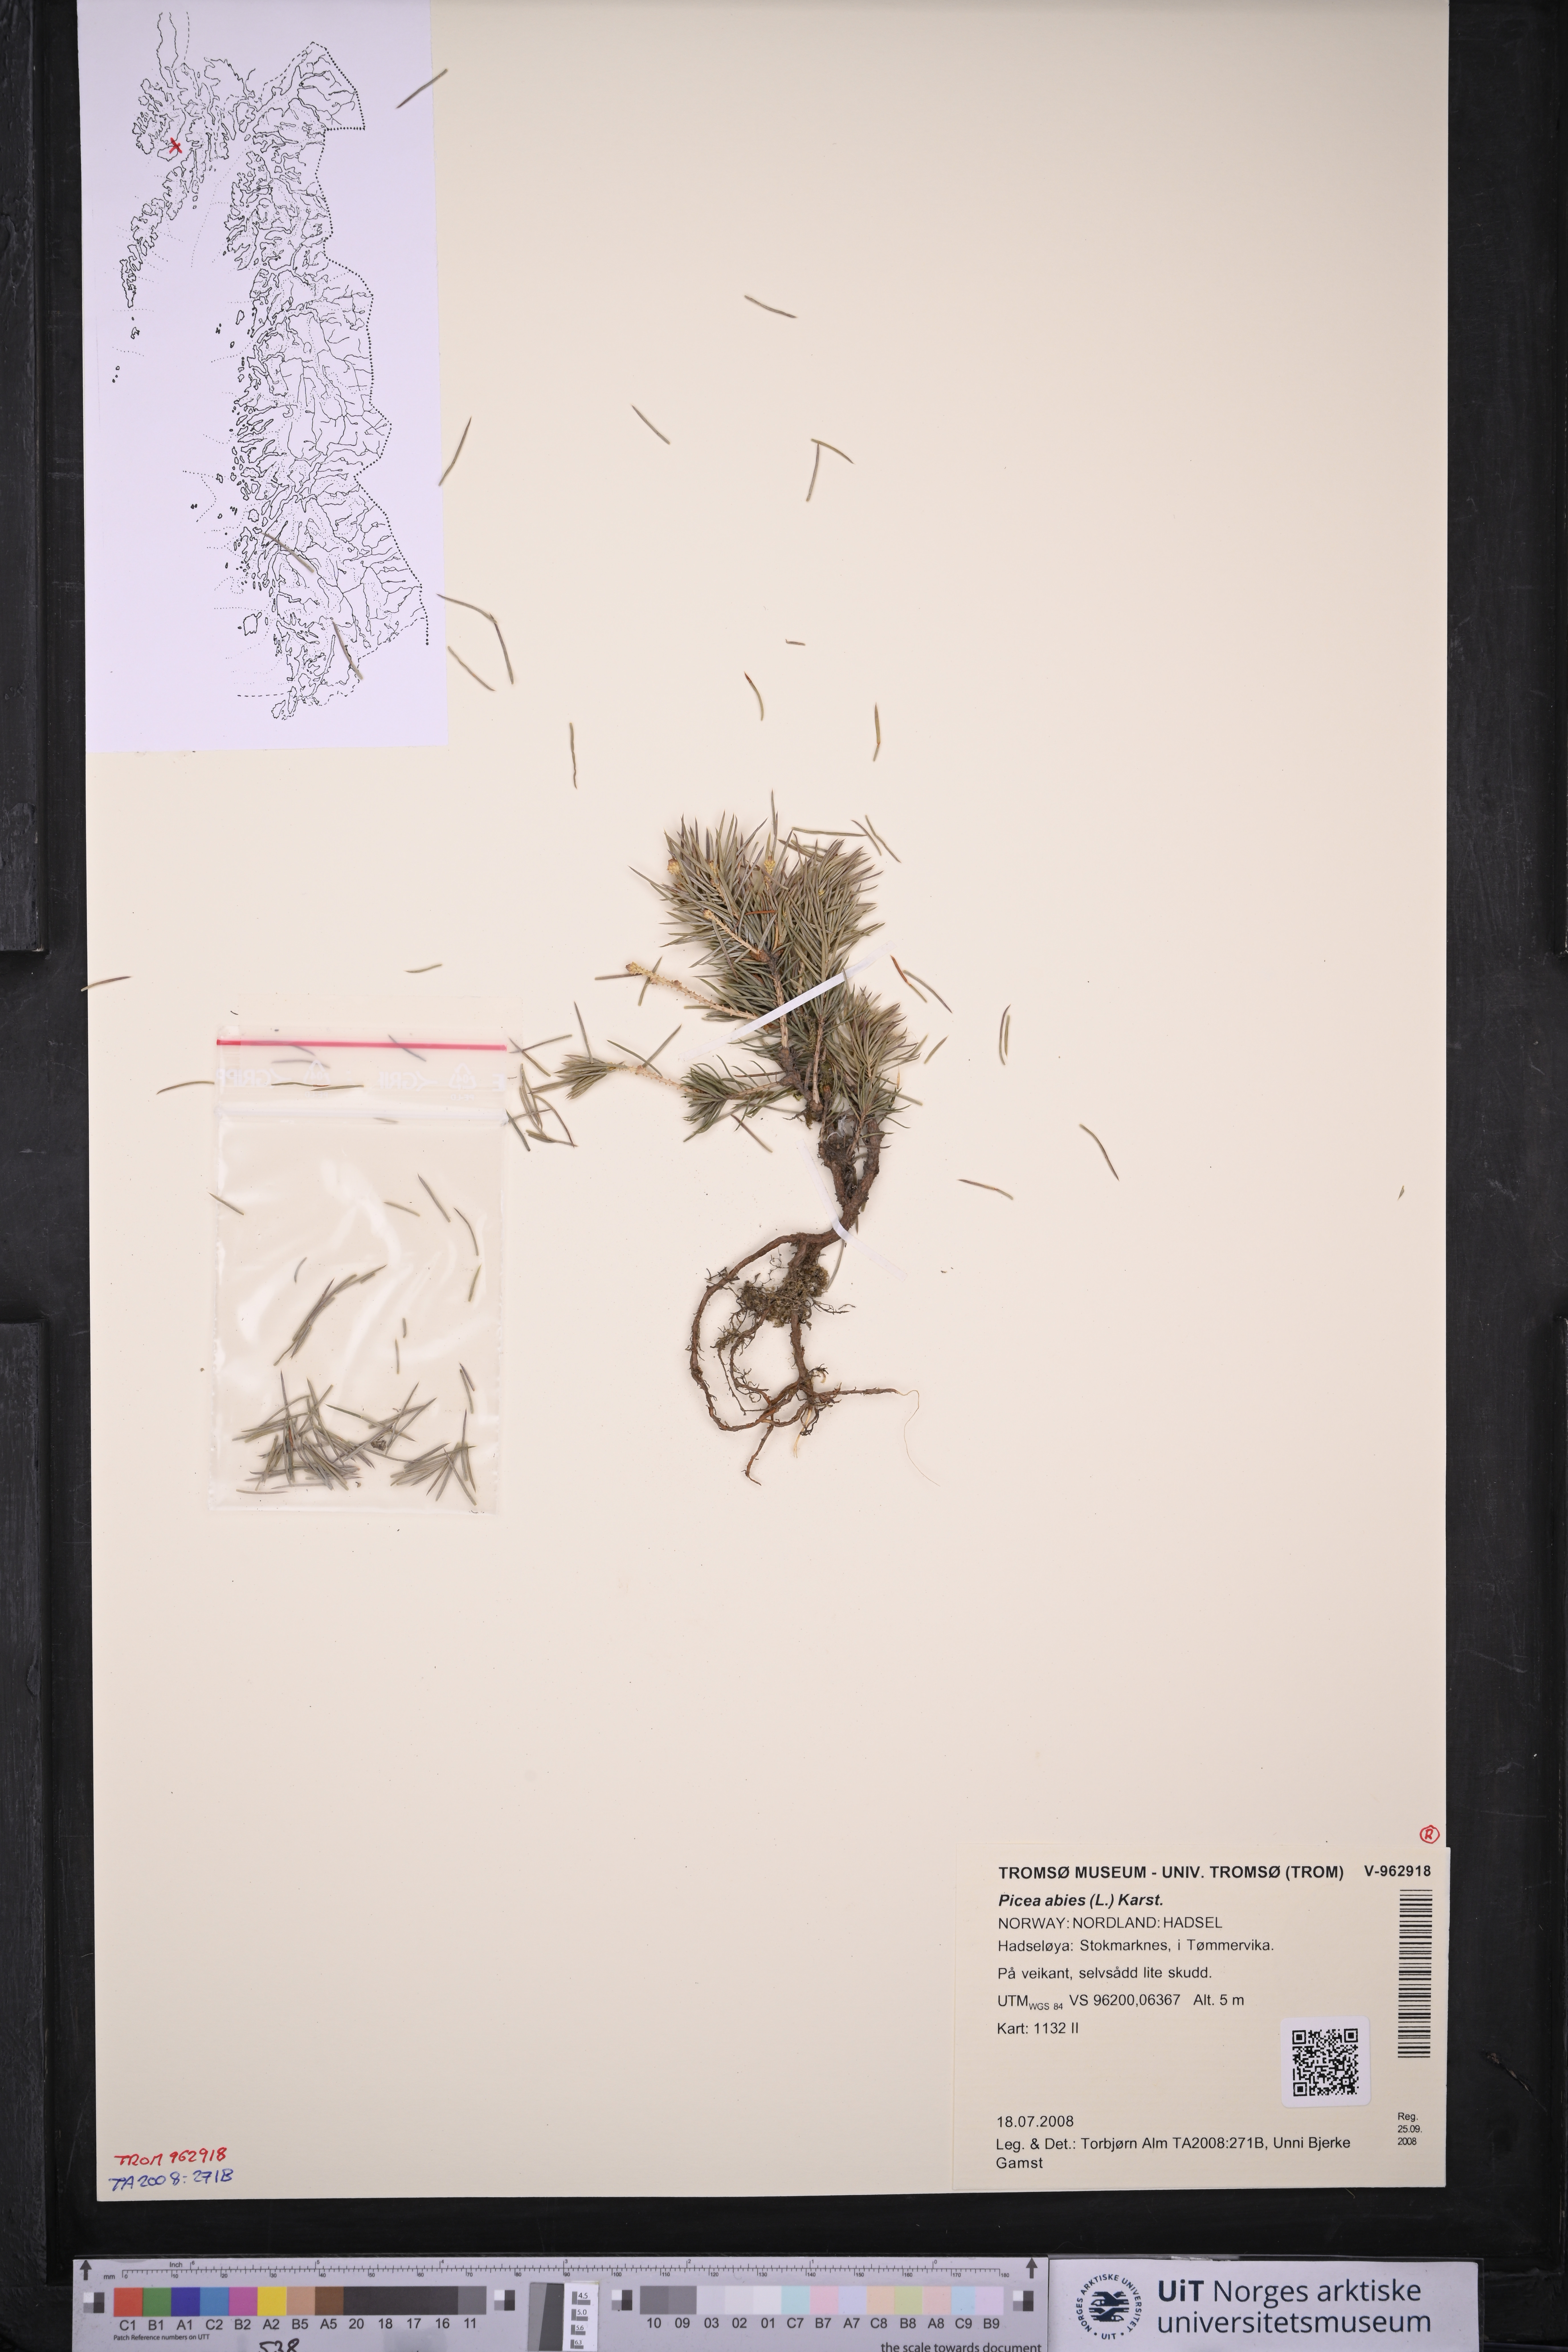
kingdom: Plantae
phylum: Tracheophyta
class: Pinopsida
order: Pinales
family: Pinaceae
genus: Picea
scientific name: Picea abies
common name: Norway spruce
